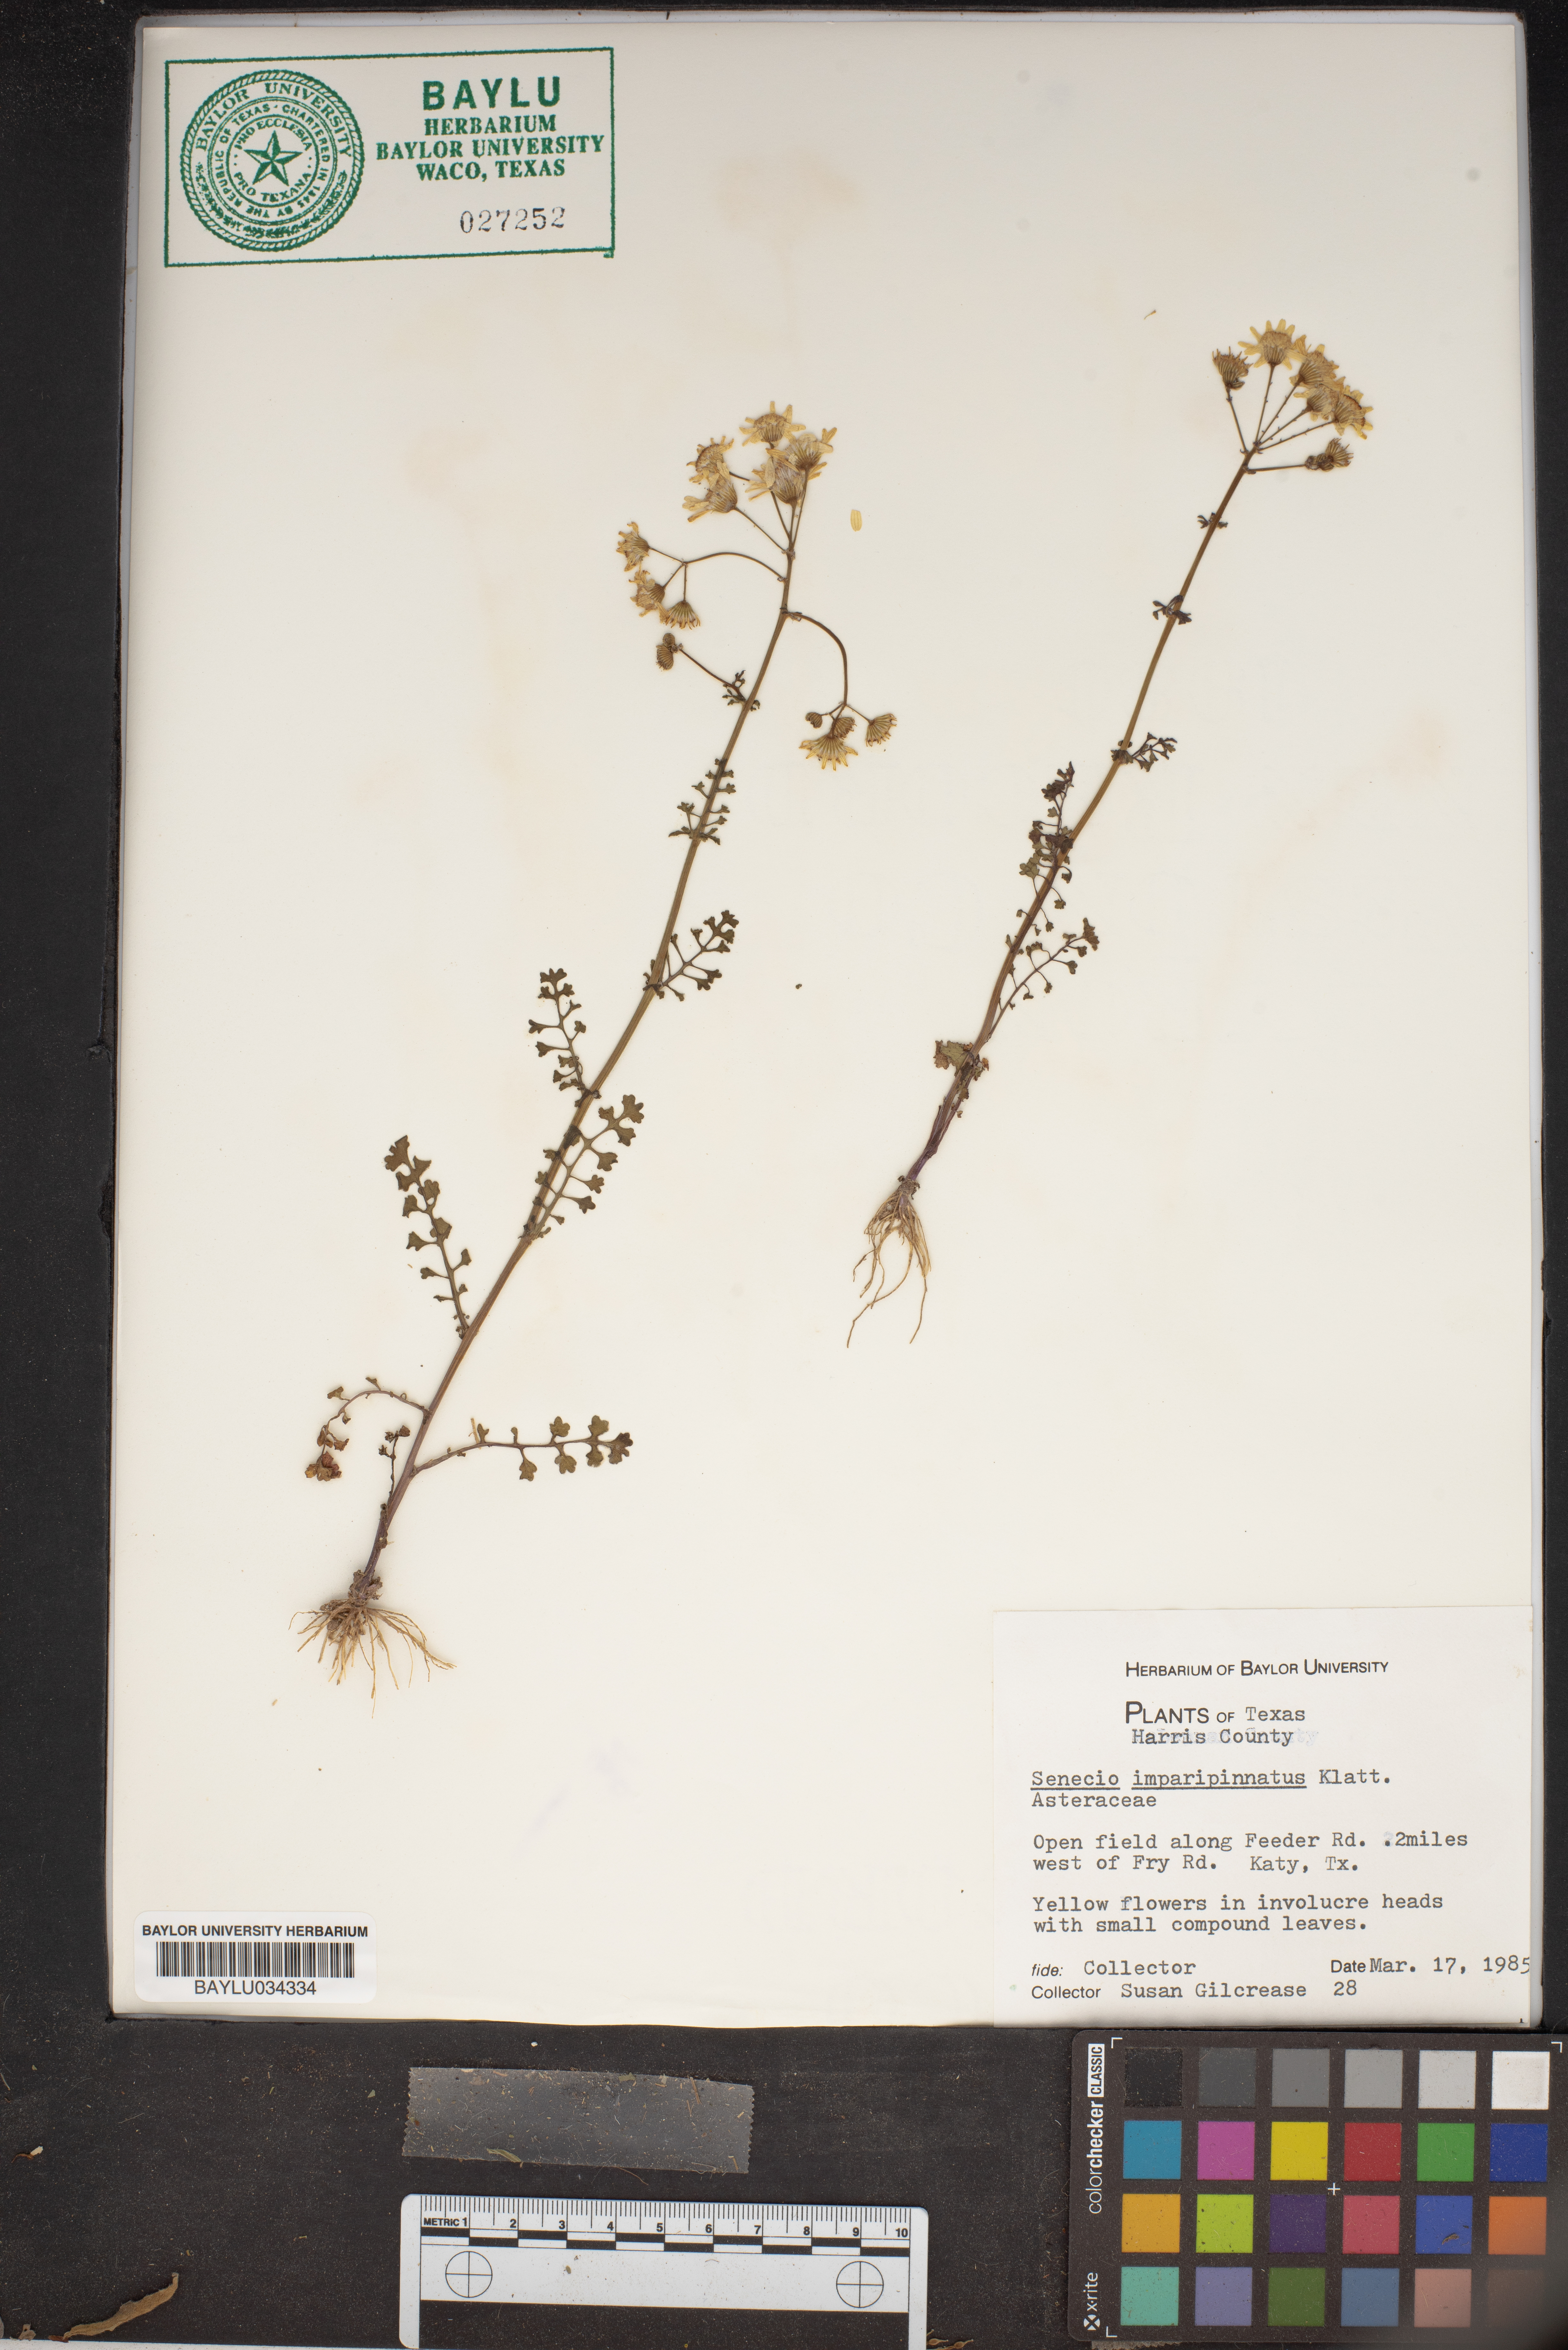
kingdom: Plantae
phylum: Tracheophyta
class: Magnoliopsida
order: Asterales
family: Asteraceae
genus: Packera
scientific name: Packera tampicana
